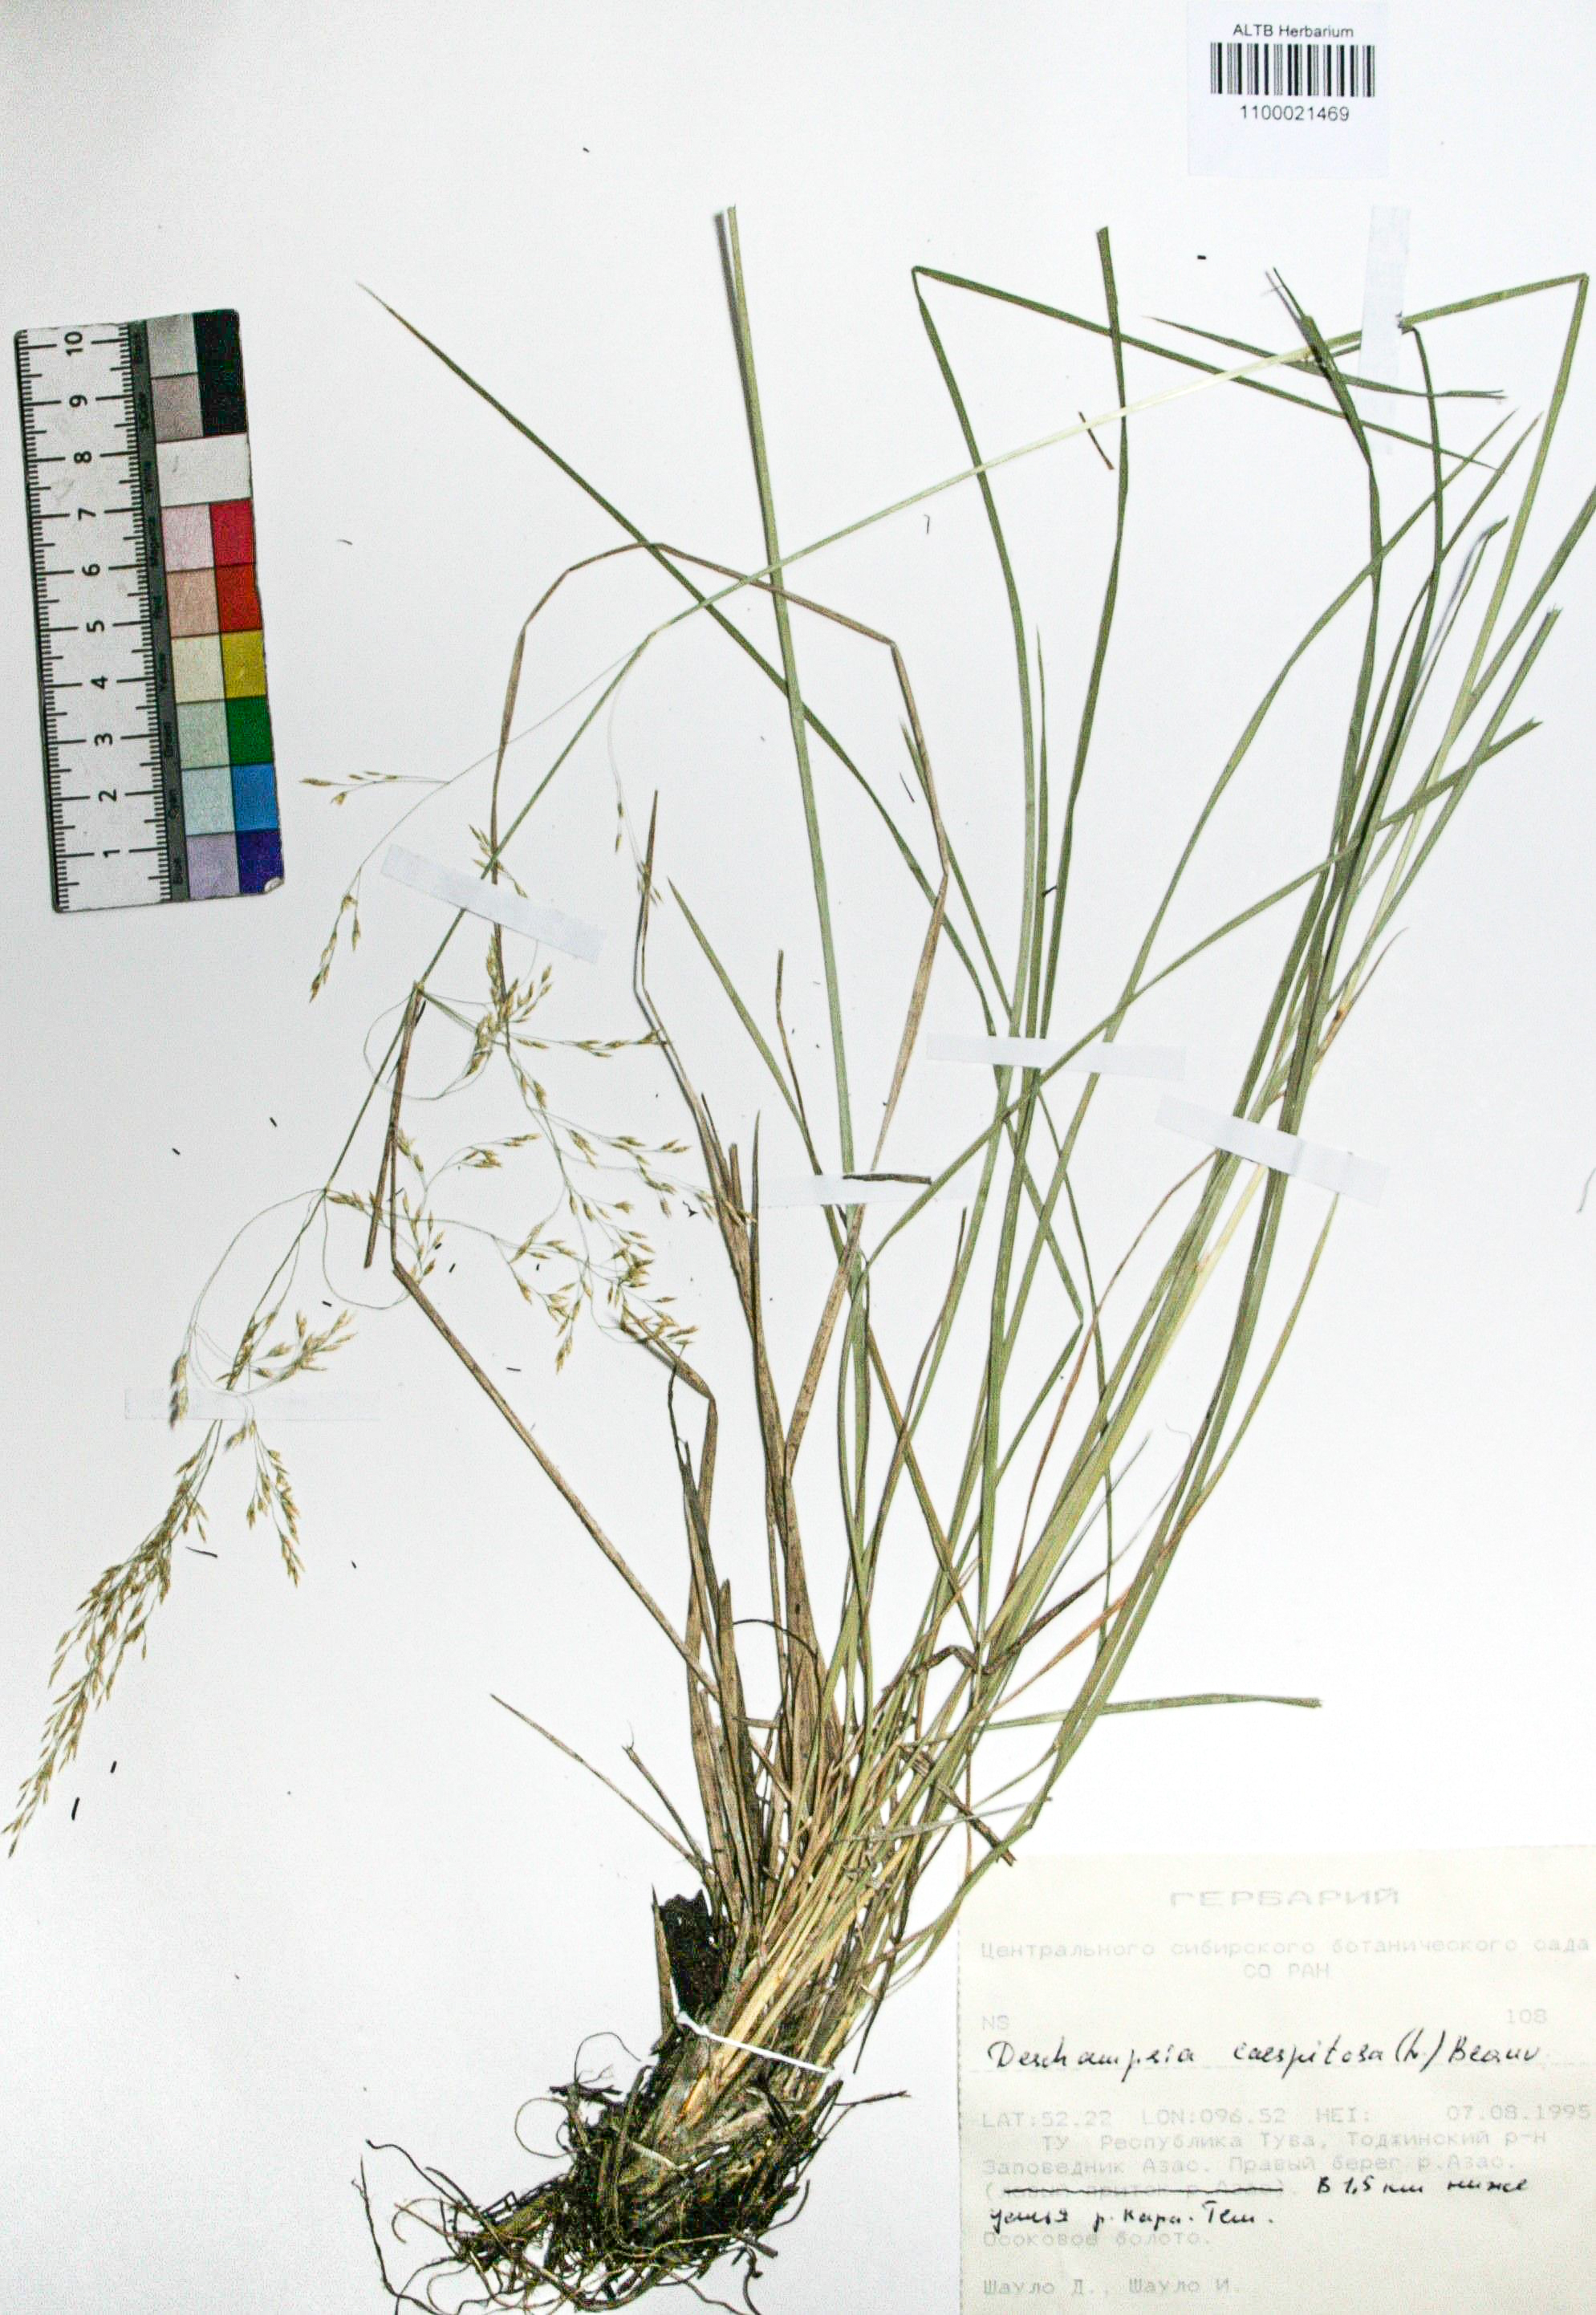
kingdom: Plantae
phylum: Tracheophyta
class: Liliopsida
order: Poales
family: Poaceae
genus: Deschampsia
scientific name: Deschampsia cespitosa
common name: Tufted hair-grass
